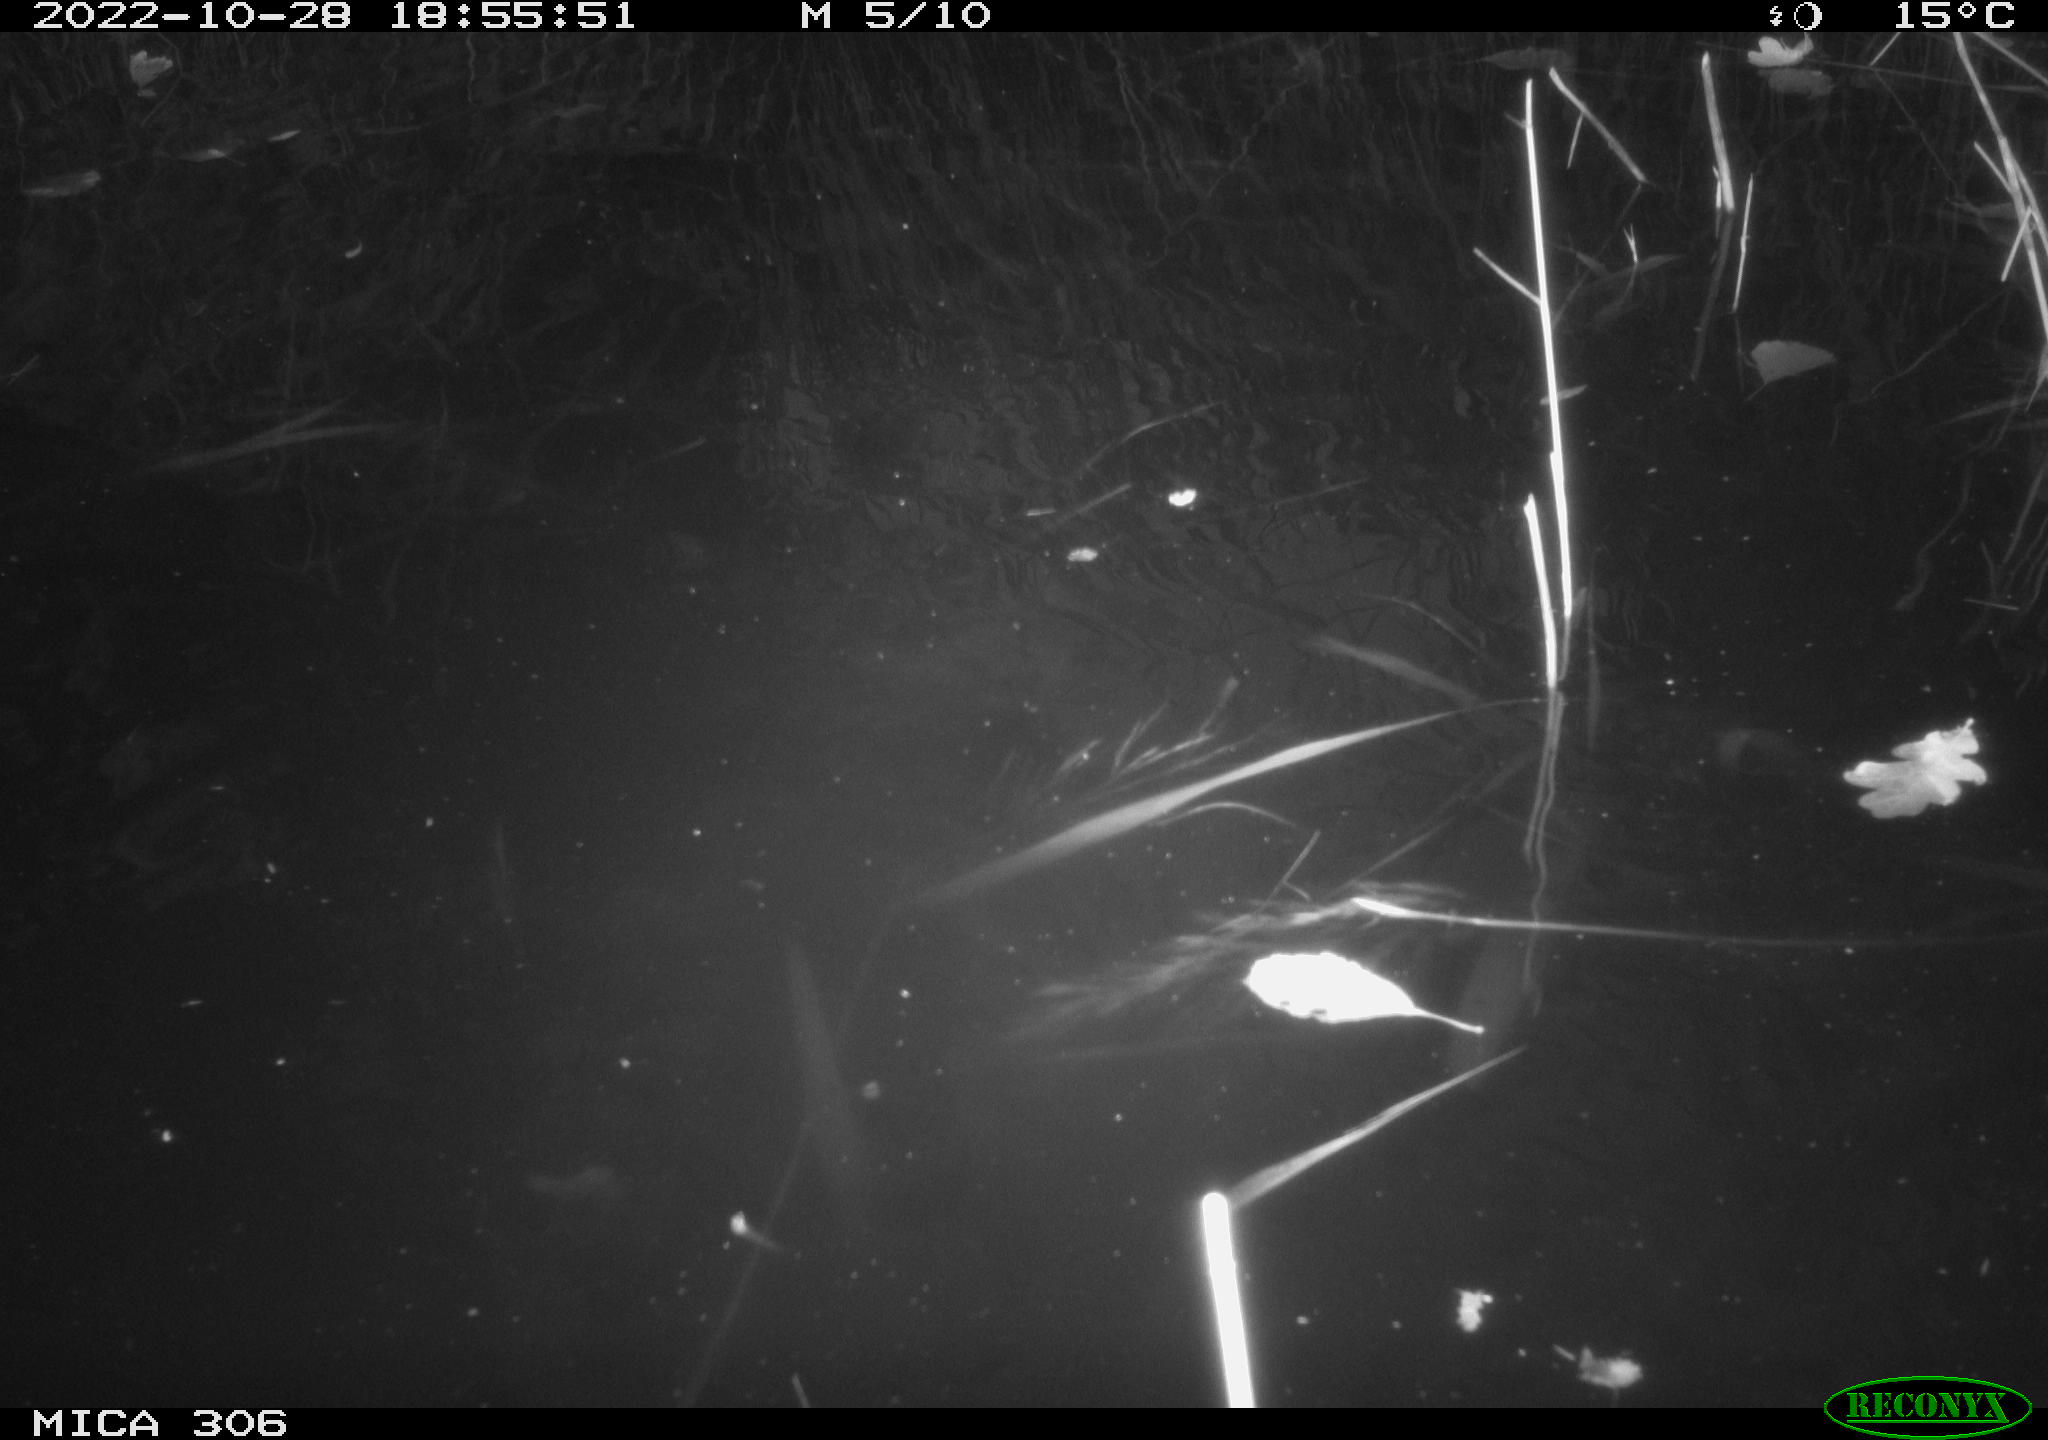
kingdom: Animalia
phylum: Chordata
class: Aves
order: Gruiformes
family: Rallidae
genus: Gallinula
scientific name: Gallinula chloropus
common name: Common moorhen
